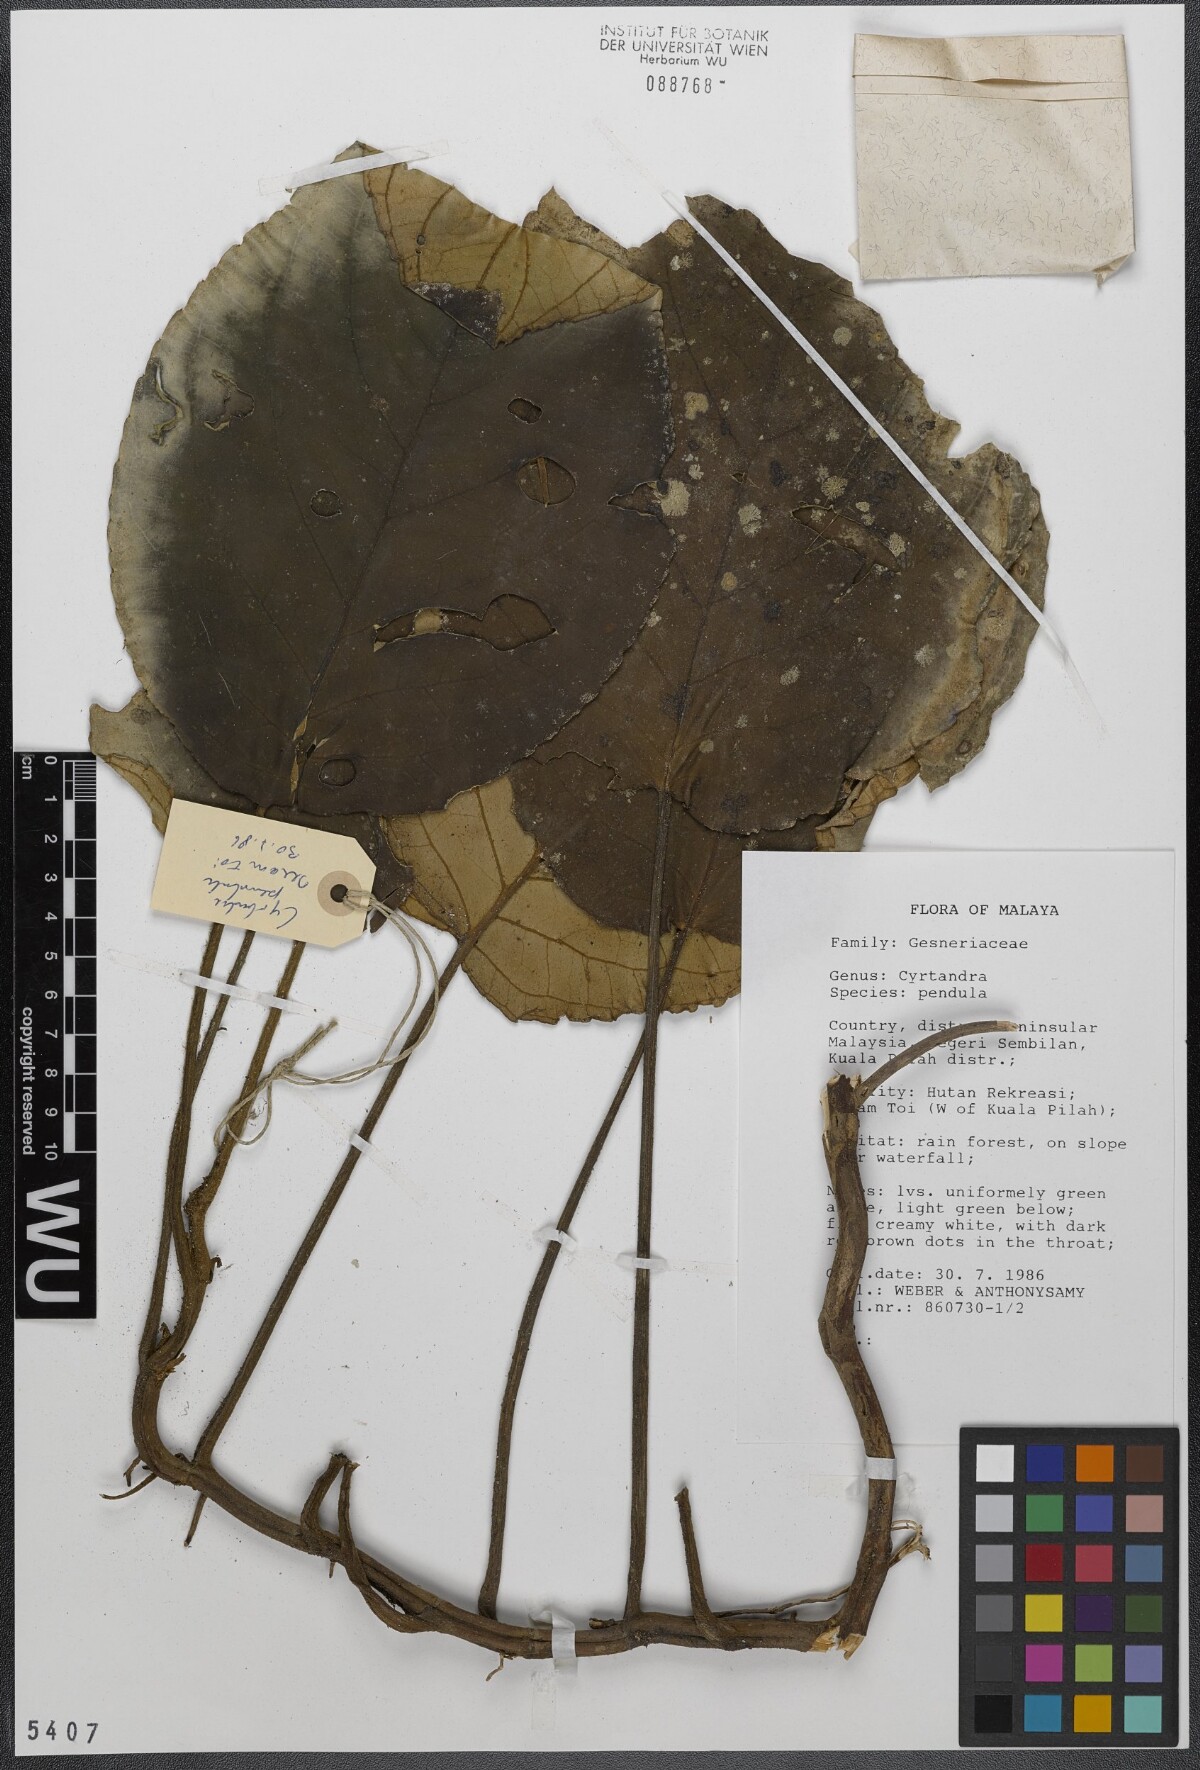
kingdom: Plantae
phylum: Tracheophyta
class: Magnoliopsida
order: Lamiales
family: Gesneriaceae
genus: Cyrtandra
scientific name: Cyrtandra pendula
